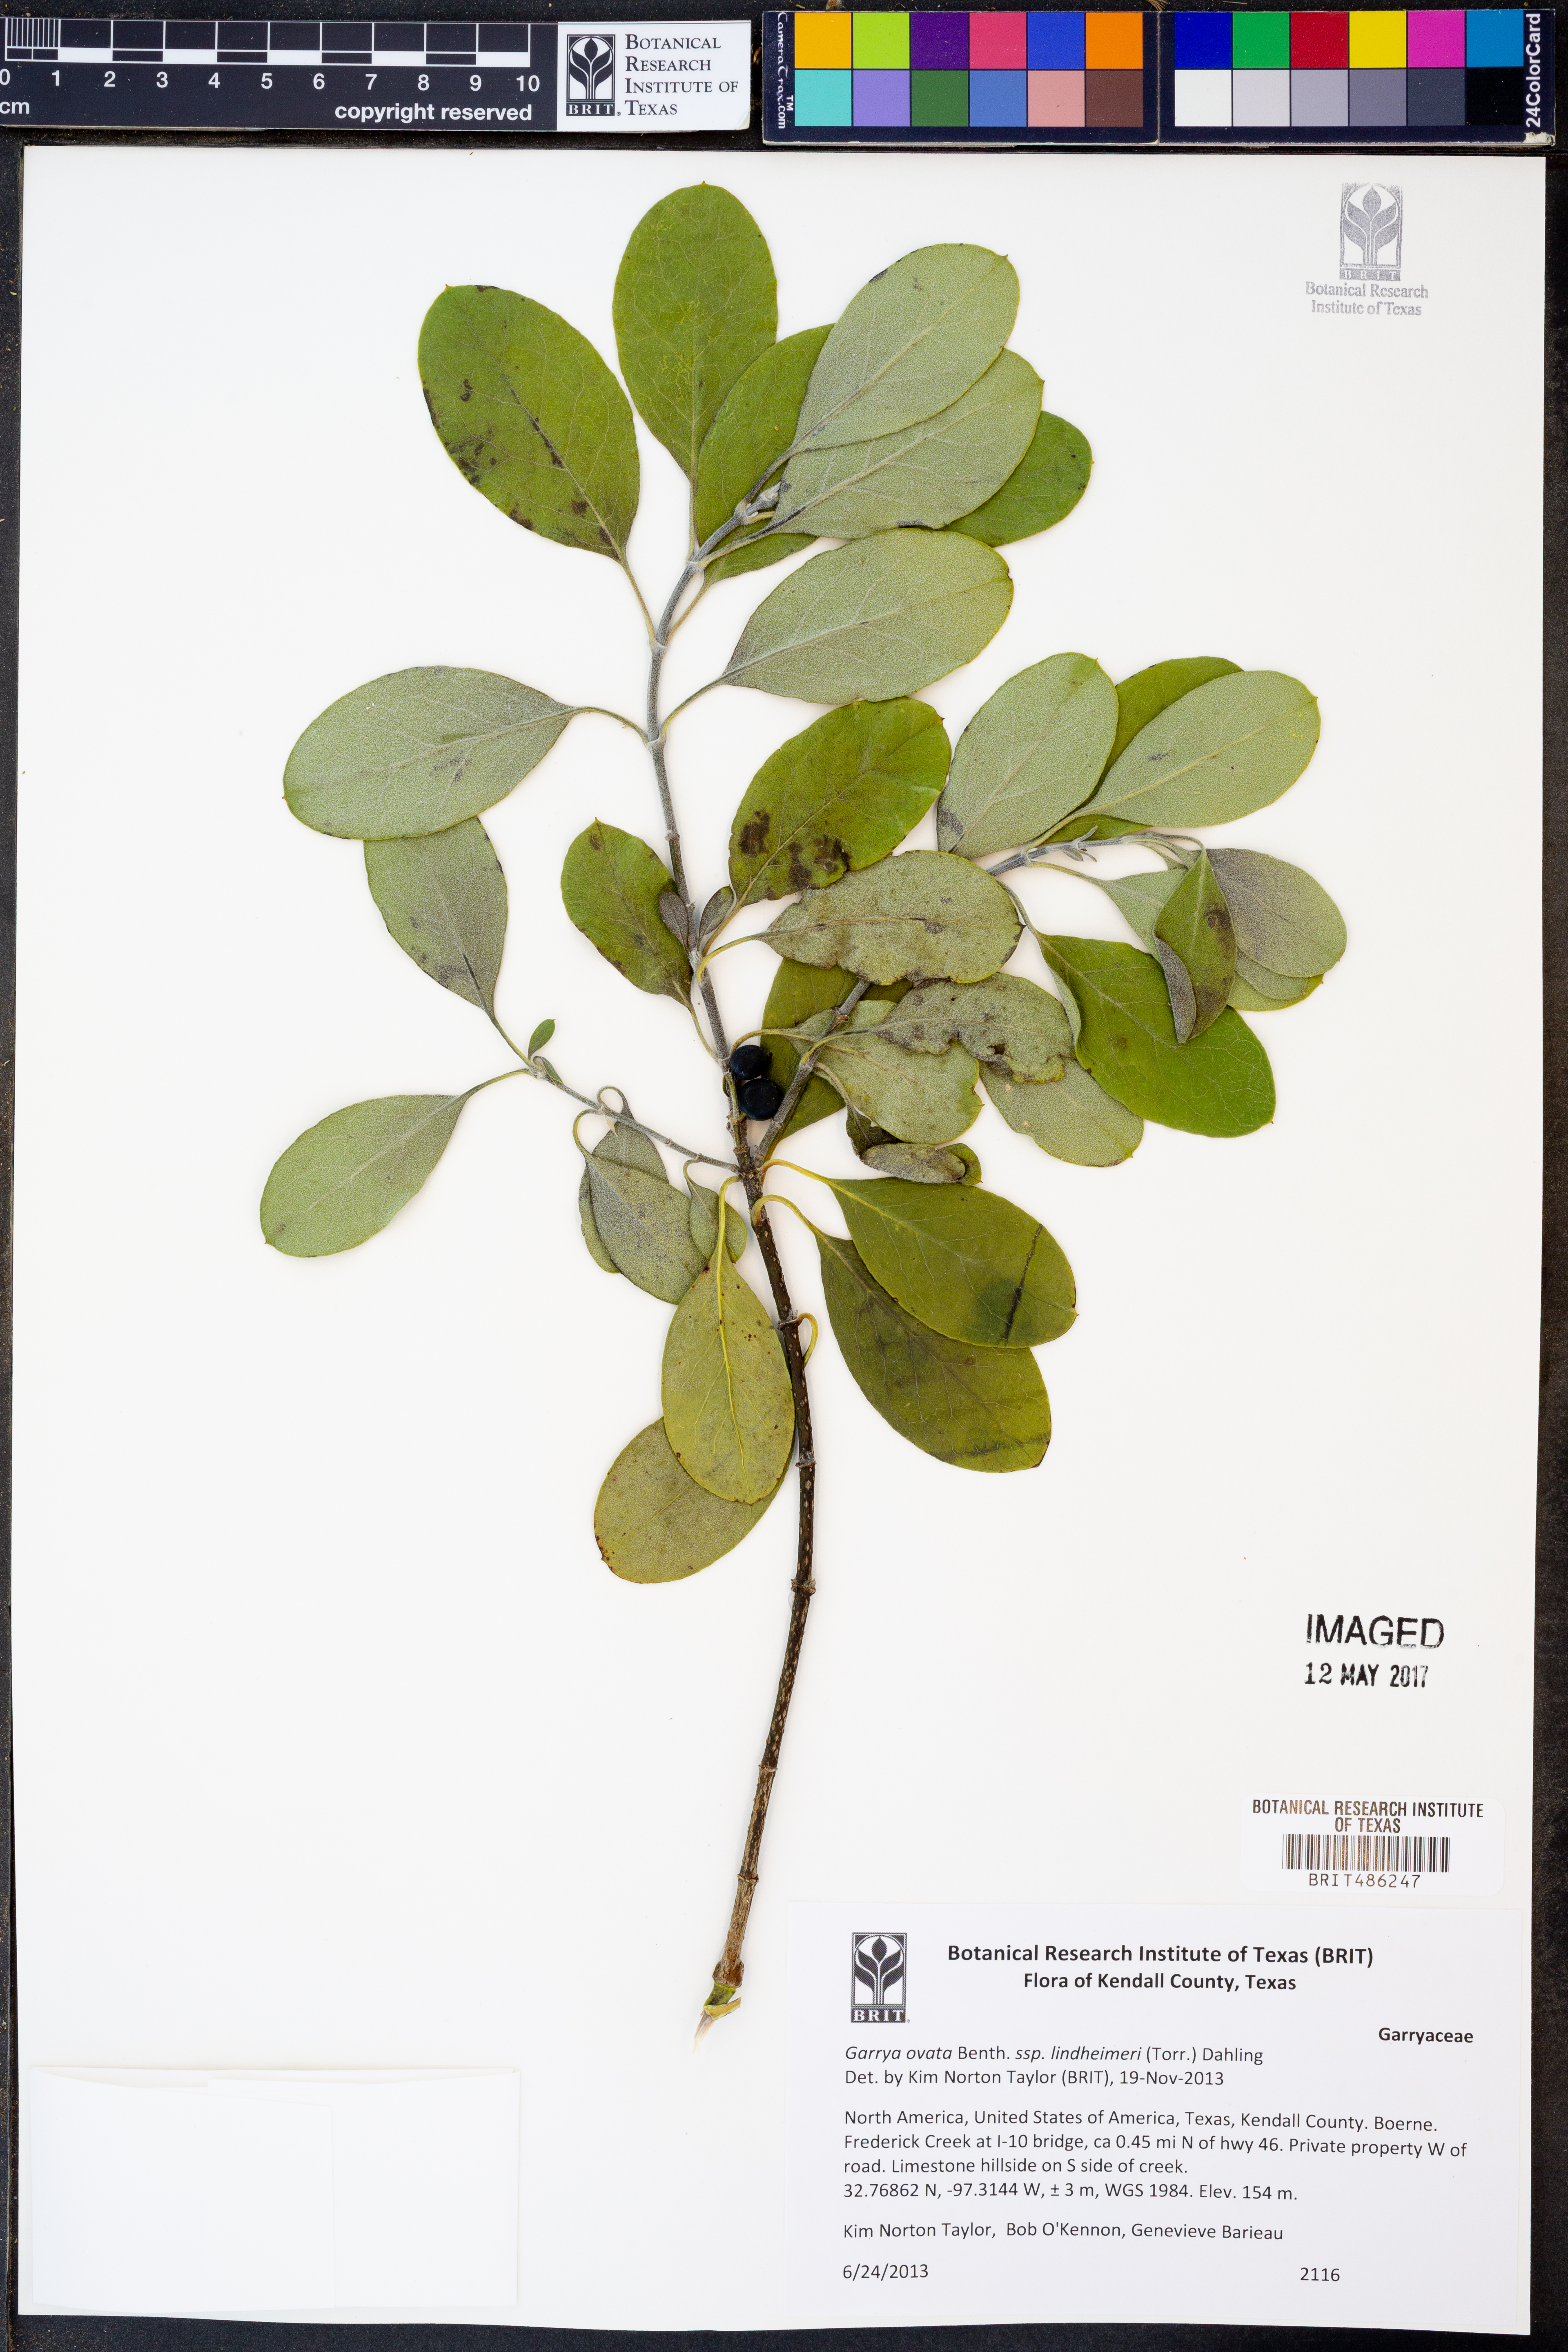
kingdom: Plantae
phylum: Tracheophyta
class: Magnoliopsida
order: Garryales
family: Garryaceae
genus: Garrya
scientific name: Garrya lindheimeri
